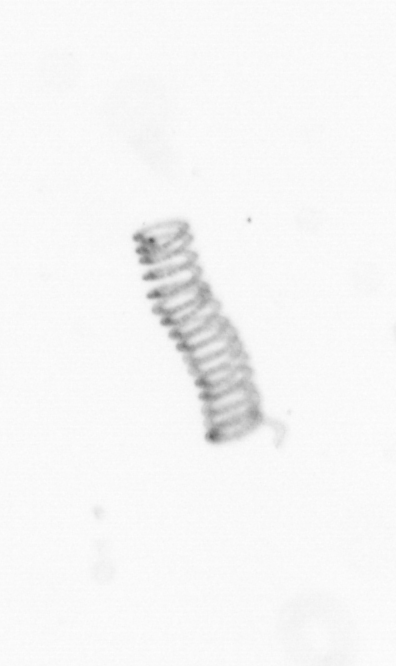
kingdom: Chromista
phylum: Ochrophyta
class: Bacillariophyceae
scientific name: Bacillariophyceae
